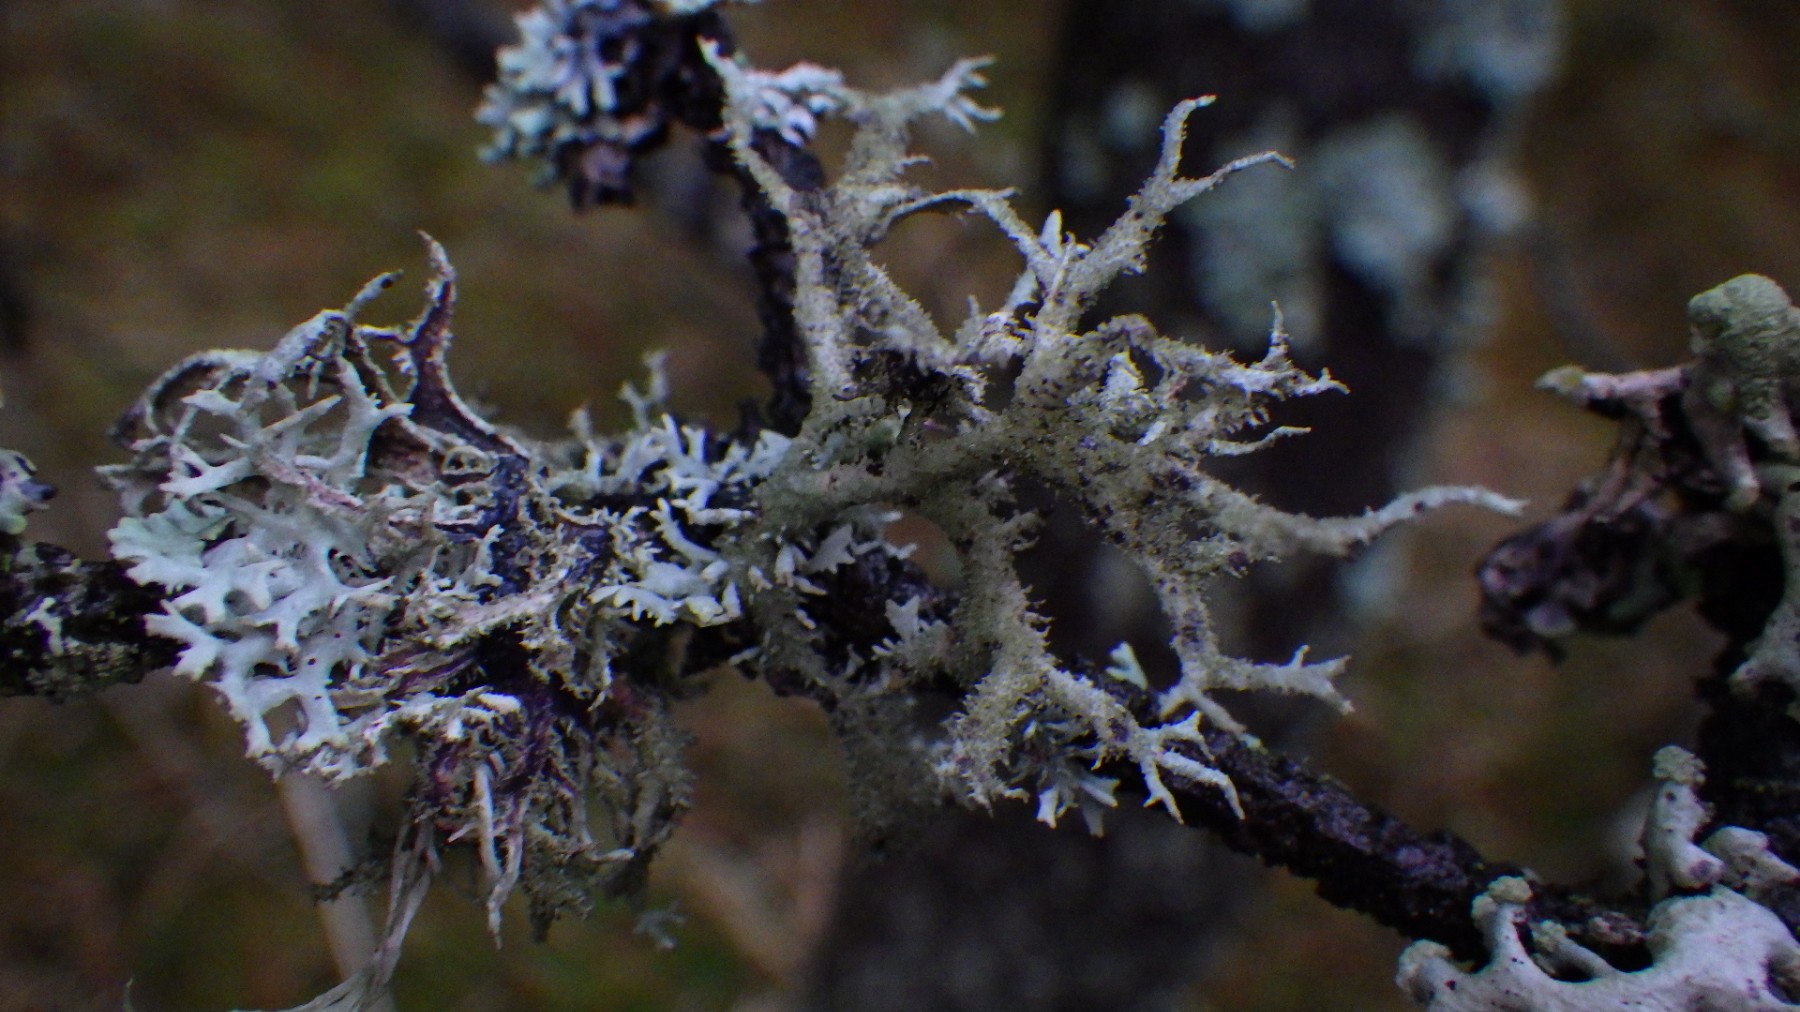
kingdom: Fungi
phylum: Ascomycota
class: Lecanoromycetes
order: Lecanorales
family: Parmeliaceae
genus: Pseudevernia
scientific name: Pseudevernia furfuracea
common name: grå fyrrelav
